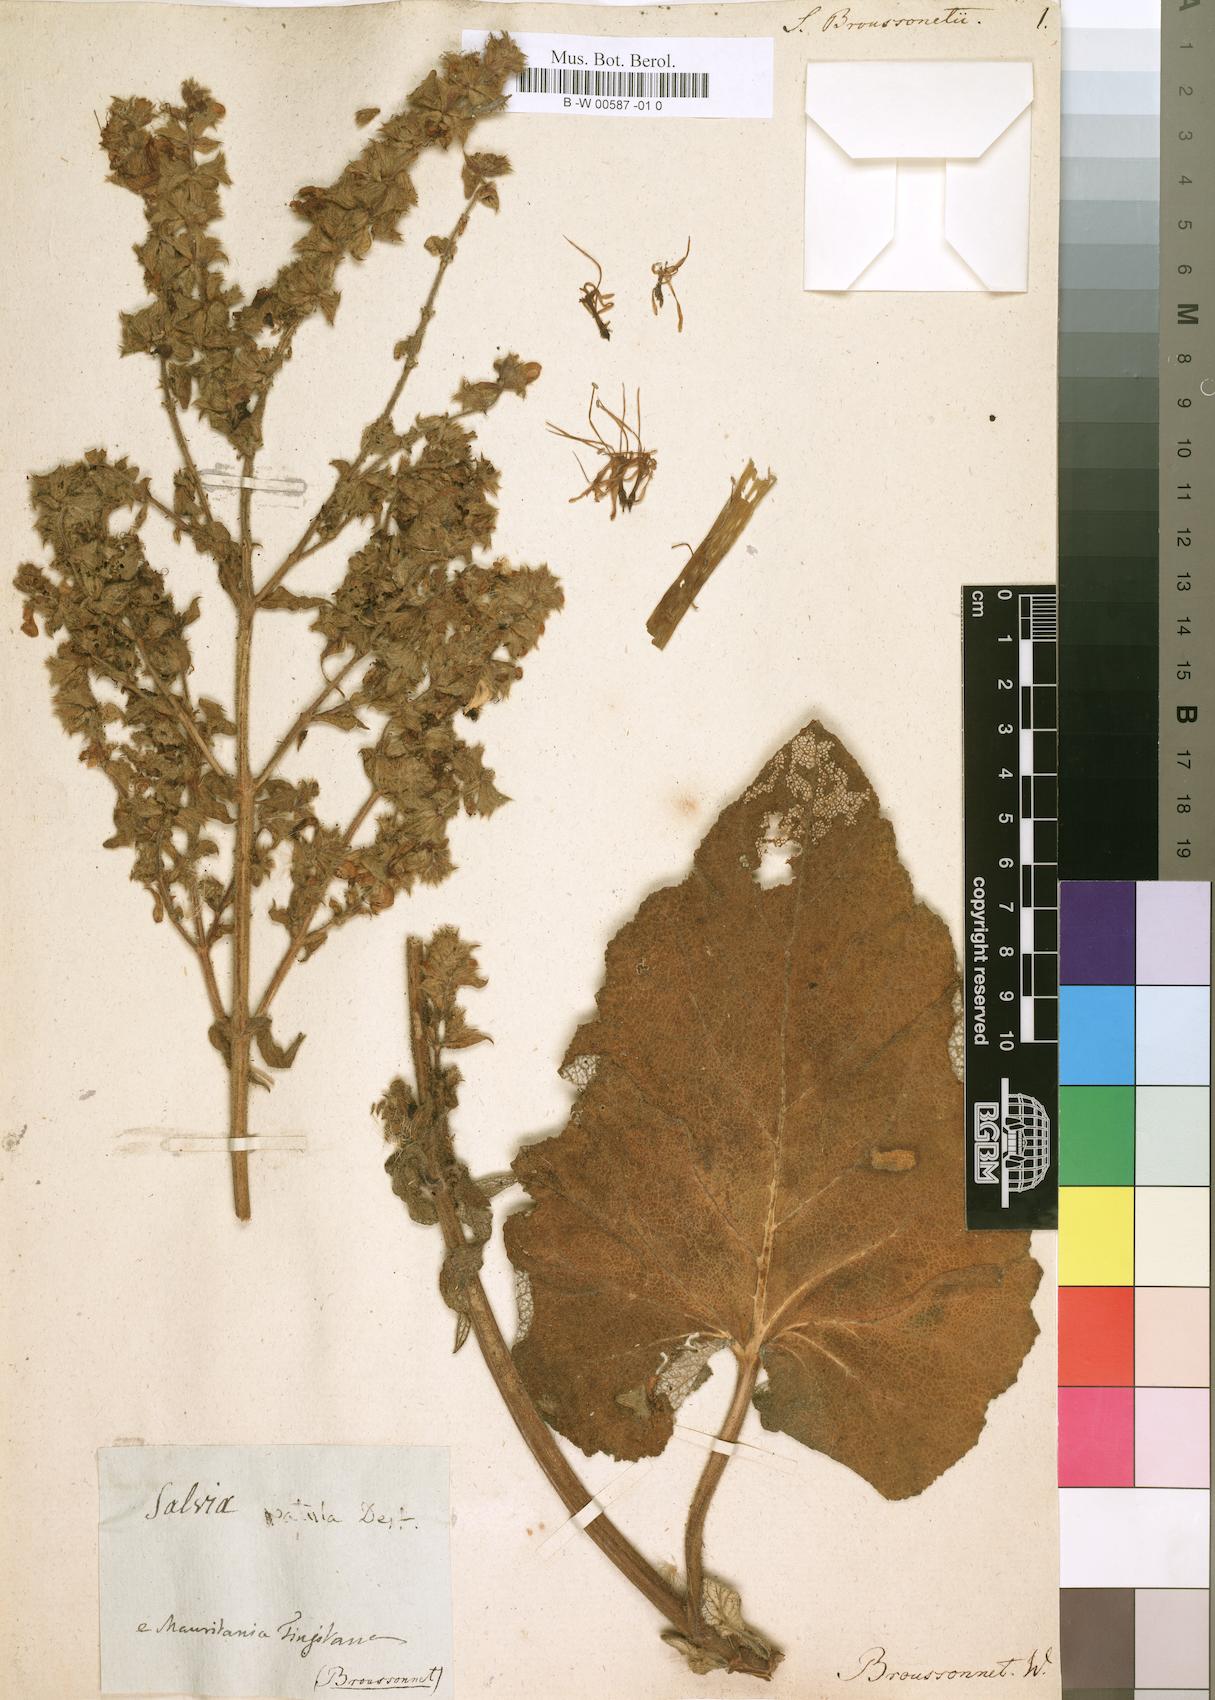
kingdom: Plantae
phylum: Tracheophyta
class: Magnoliopsida
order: Lamiales
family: Lamiaceae
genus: Salvia
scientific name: Salvia broussonetii
